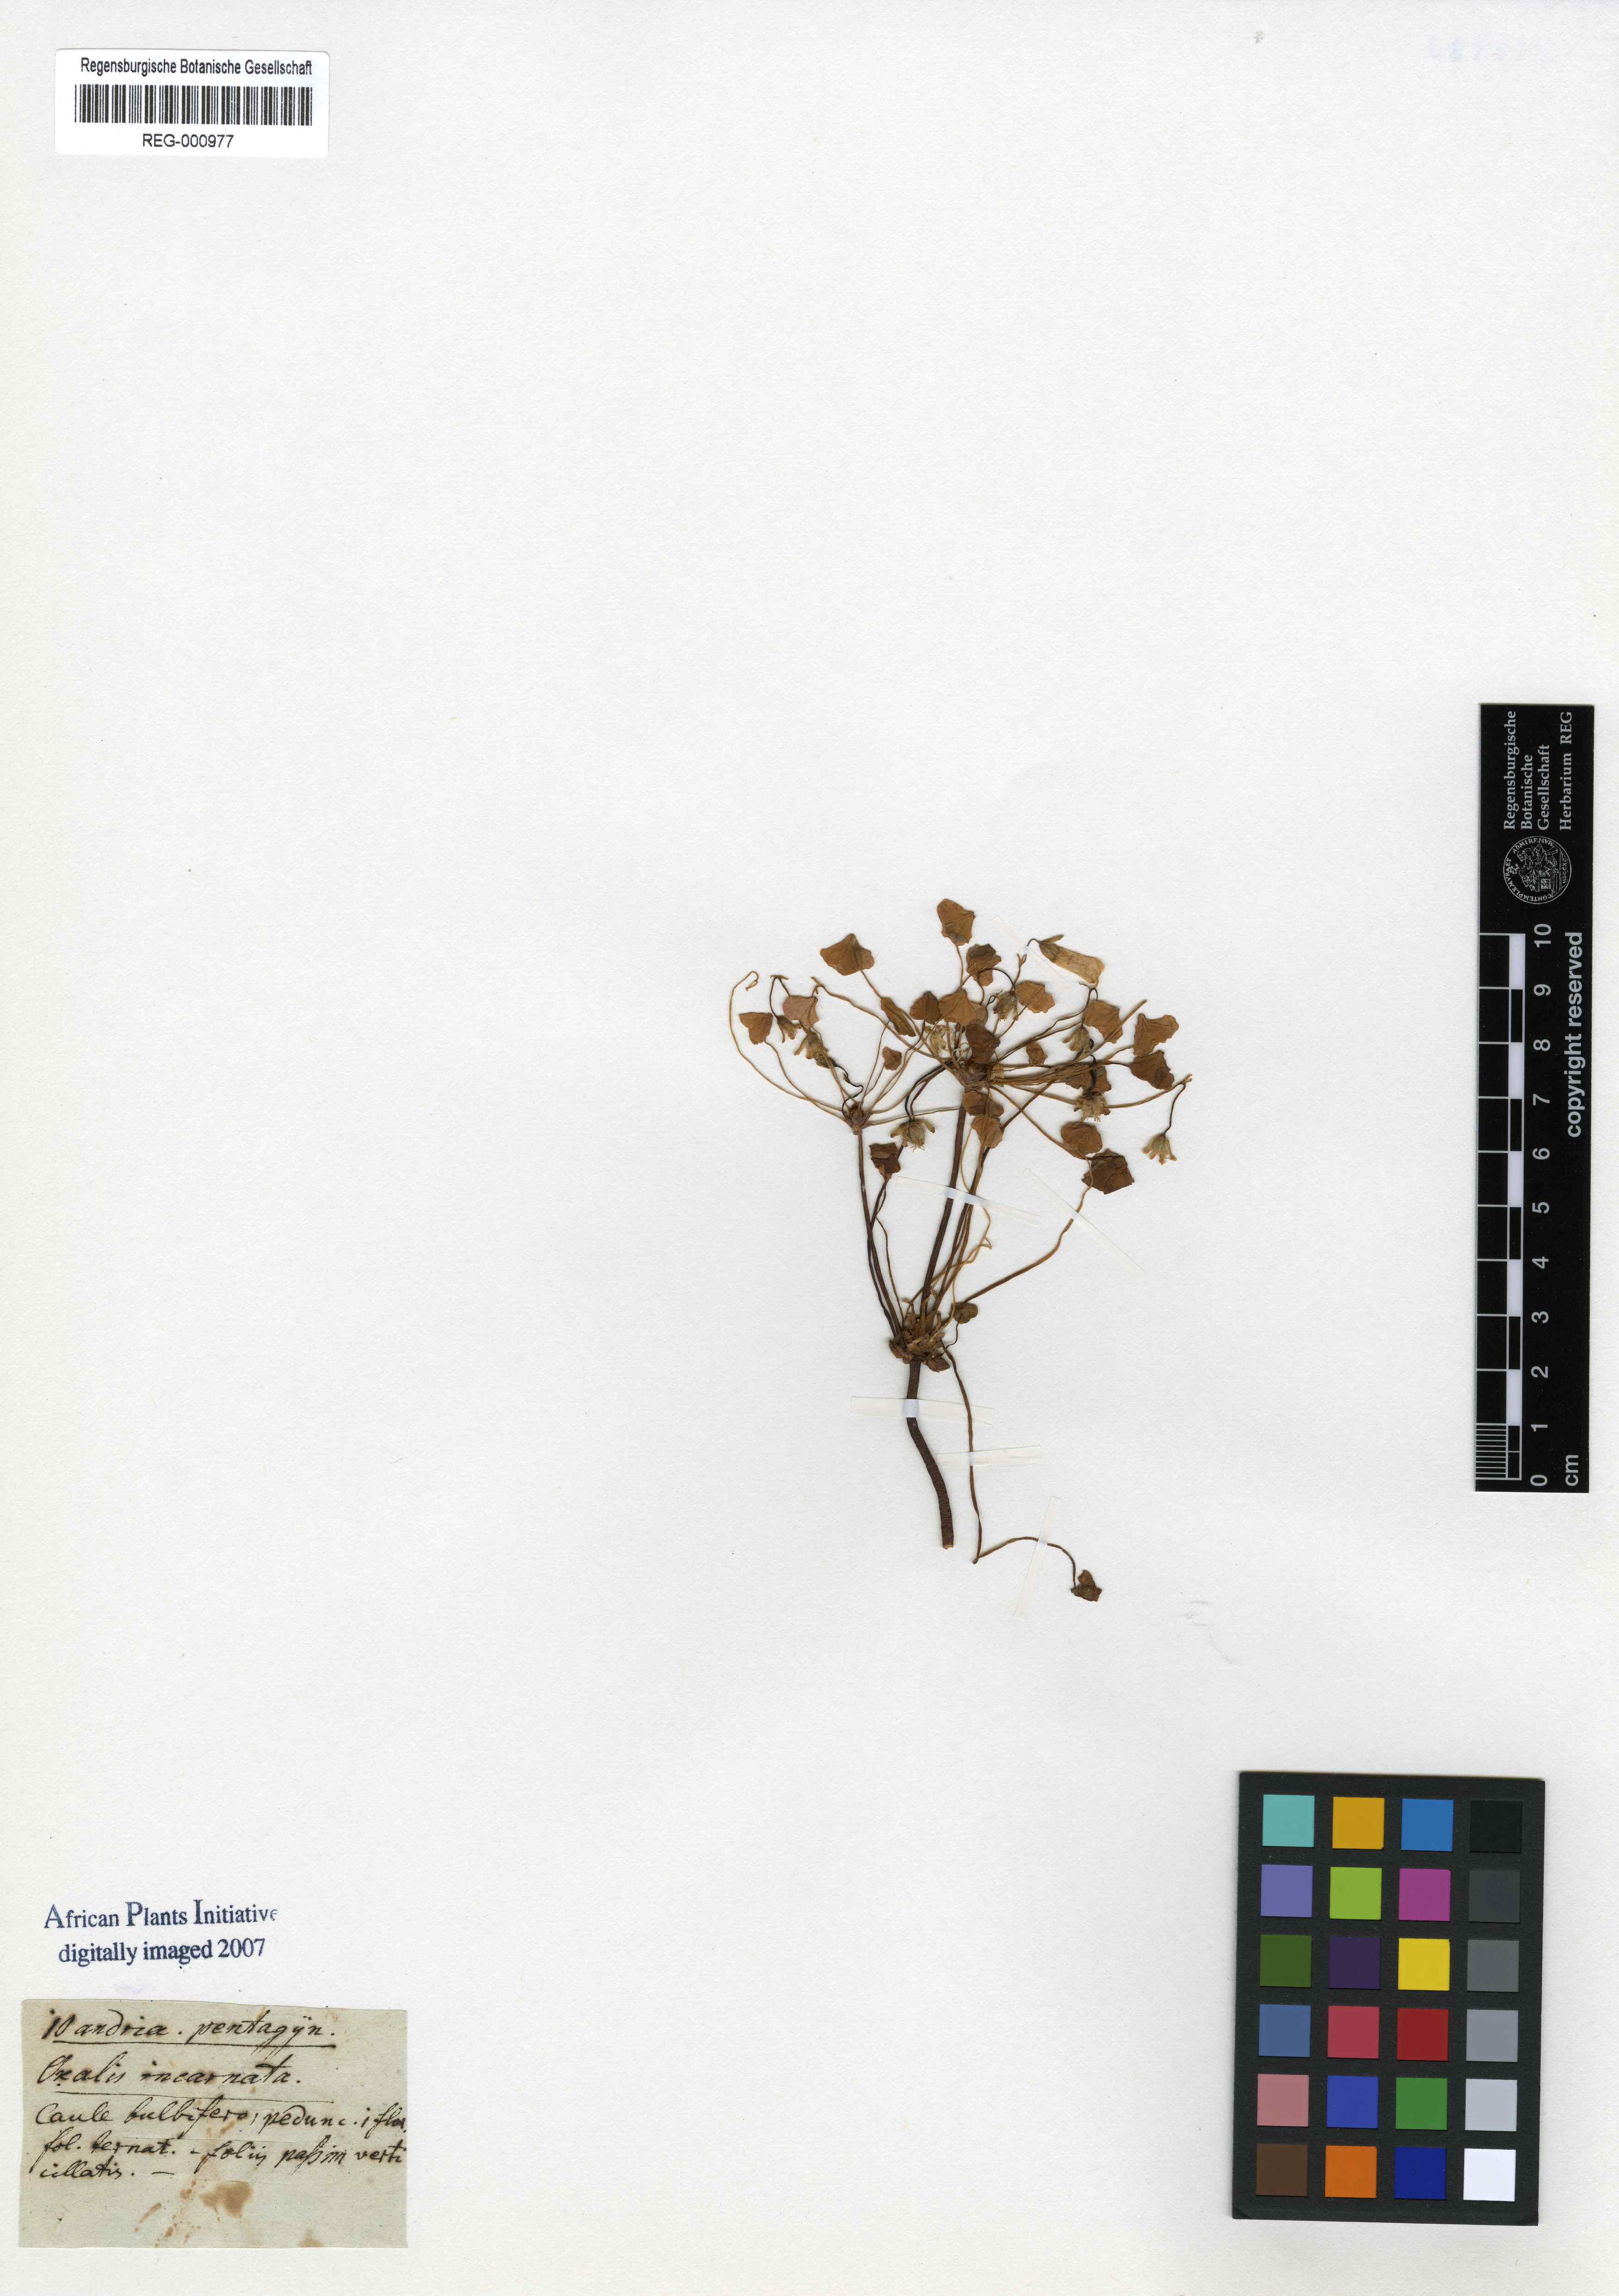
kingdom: Plantae
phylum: Tracheophyta
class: Magnoliopsida
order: Oxalidales
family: Oxalidaceae
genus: Oxalis
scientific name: Oxalis incarnata
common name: Pale pink-sorrel
